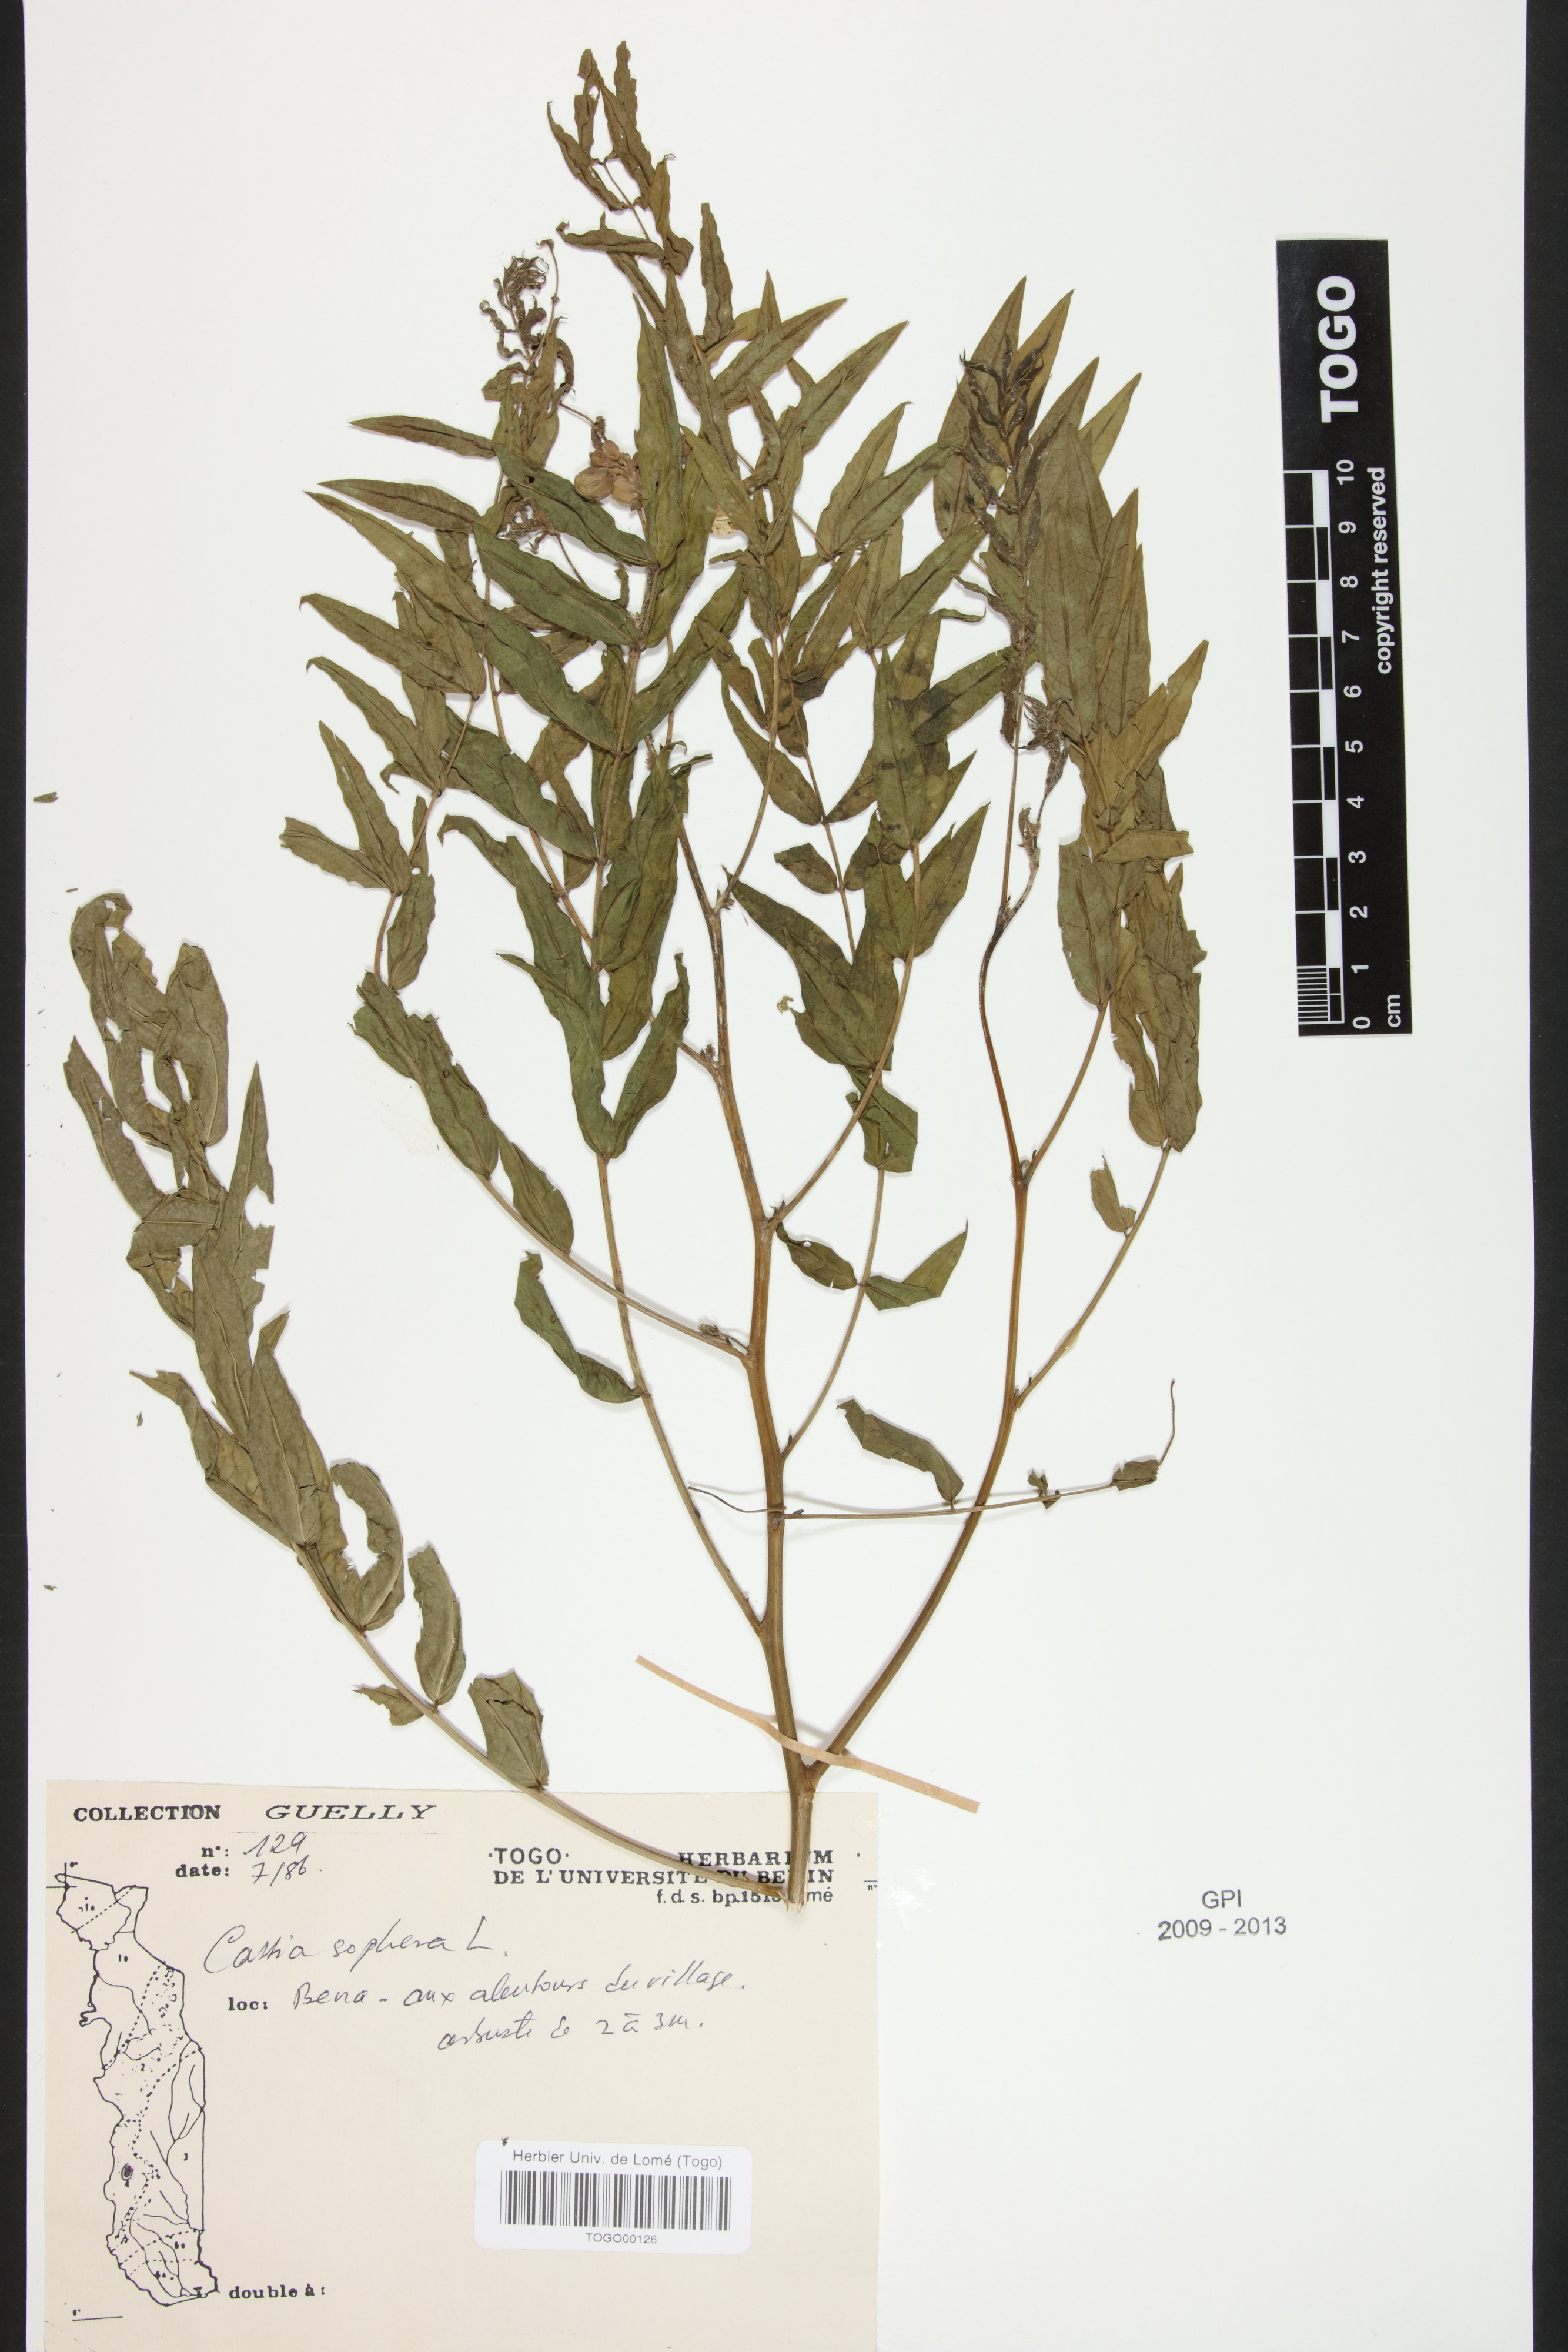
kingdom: Plantae
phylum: Tracheophyta
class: Magnoliopsida
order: Fabales
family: Fabaceae
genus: Senna
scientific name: Senna sophera
